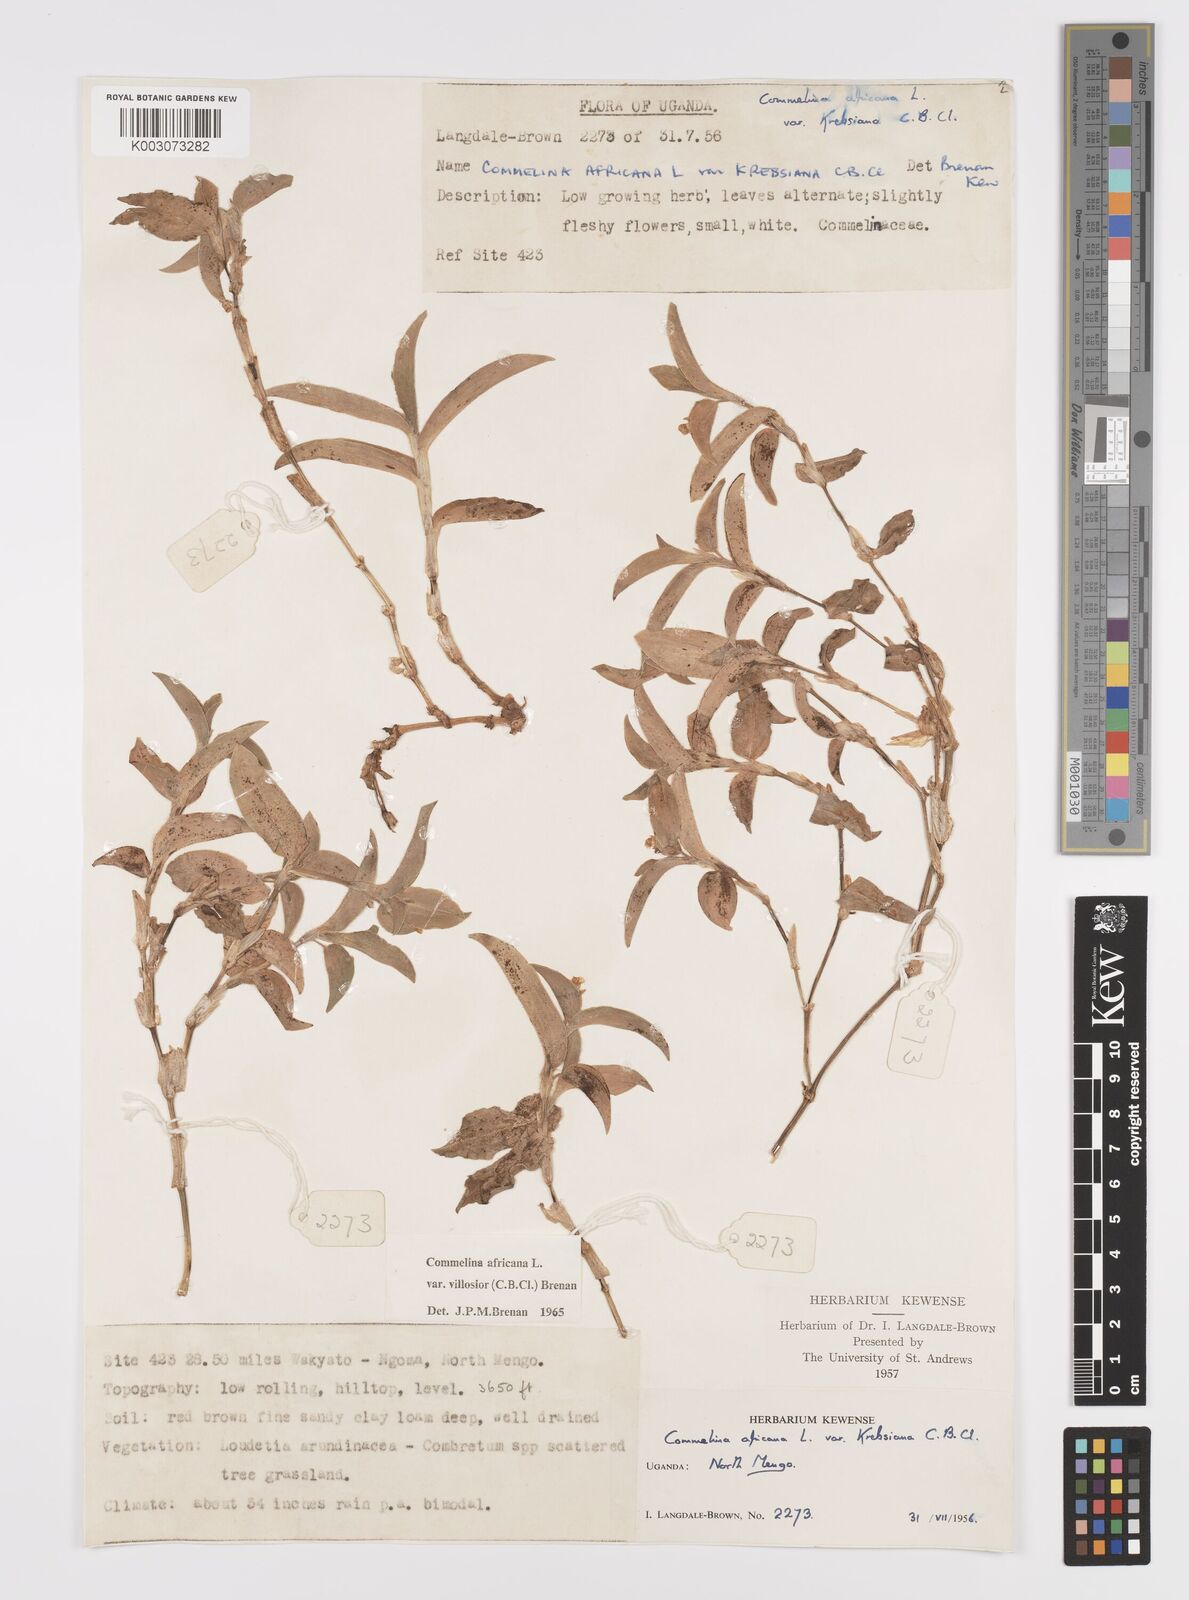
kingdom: Plantae
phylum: Tracheophyta
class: Liliopsida
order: Commelinales
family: Commelinaceae
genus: Commelina
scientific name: Commelina africana
